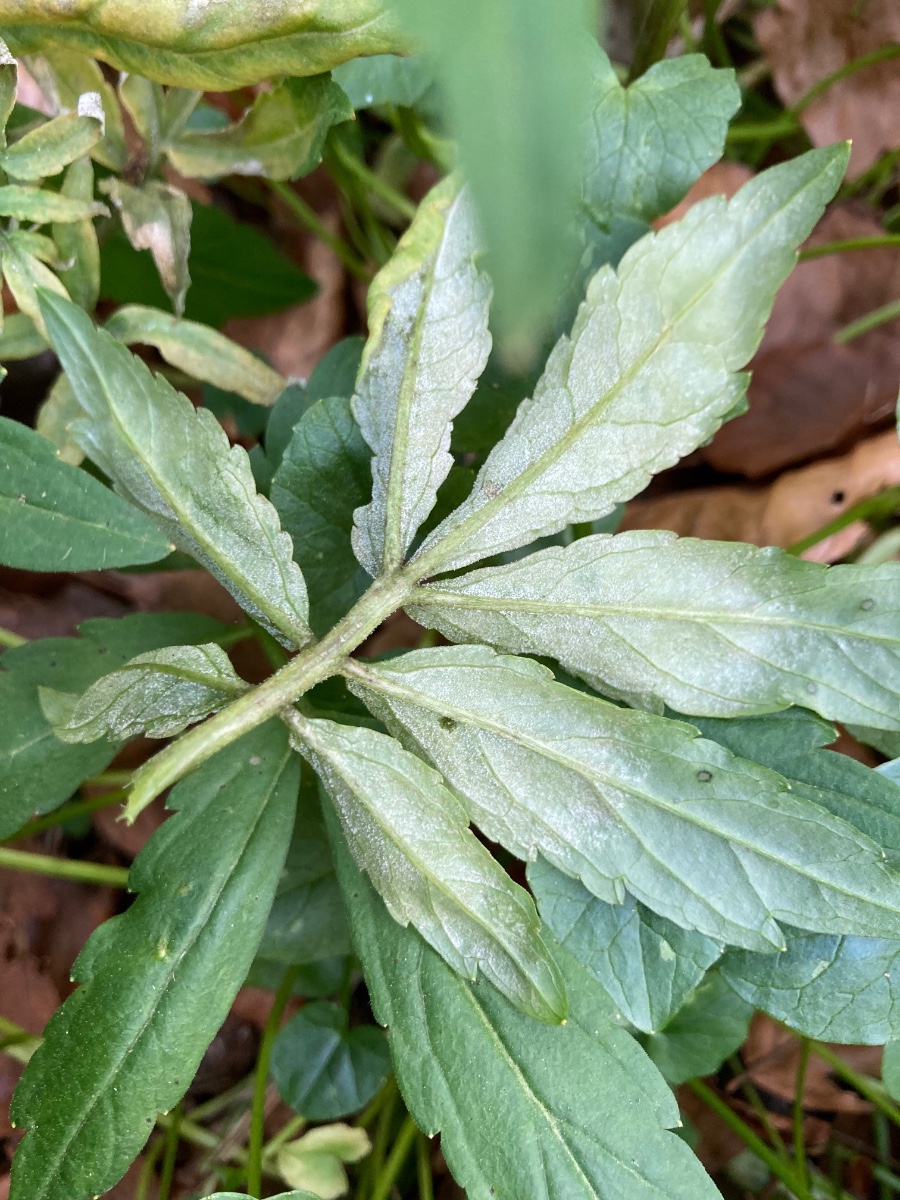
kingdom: Chromista
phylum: Oomycota
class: Peronosporea
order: Peronosporales
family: Peronosporaceae
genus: Hyaloperonospora
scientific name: Hyaloperonospora dentariae
